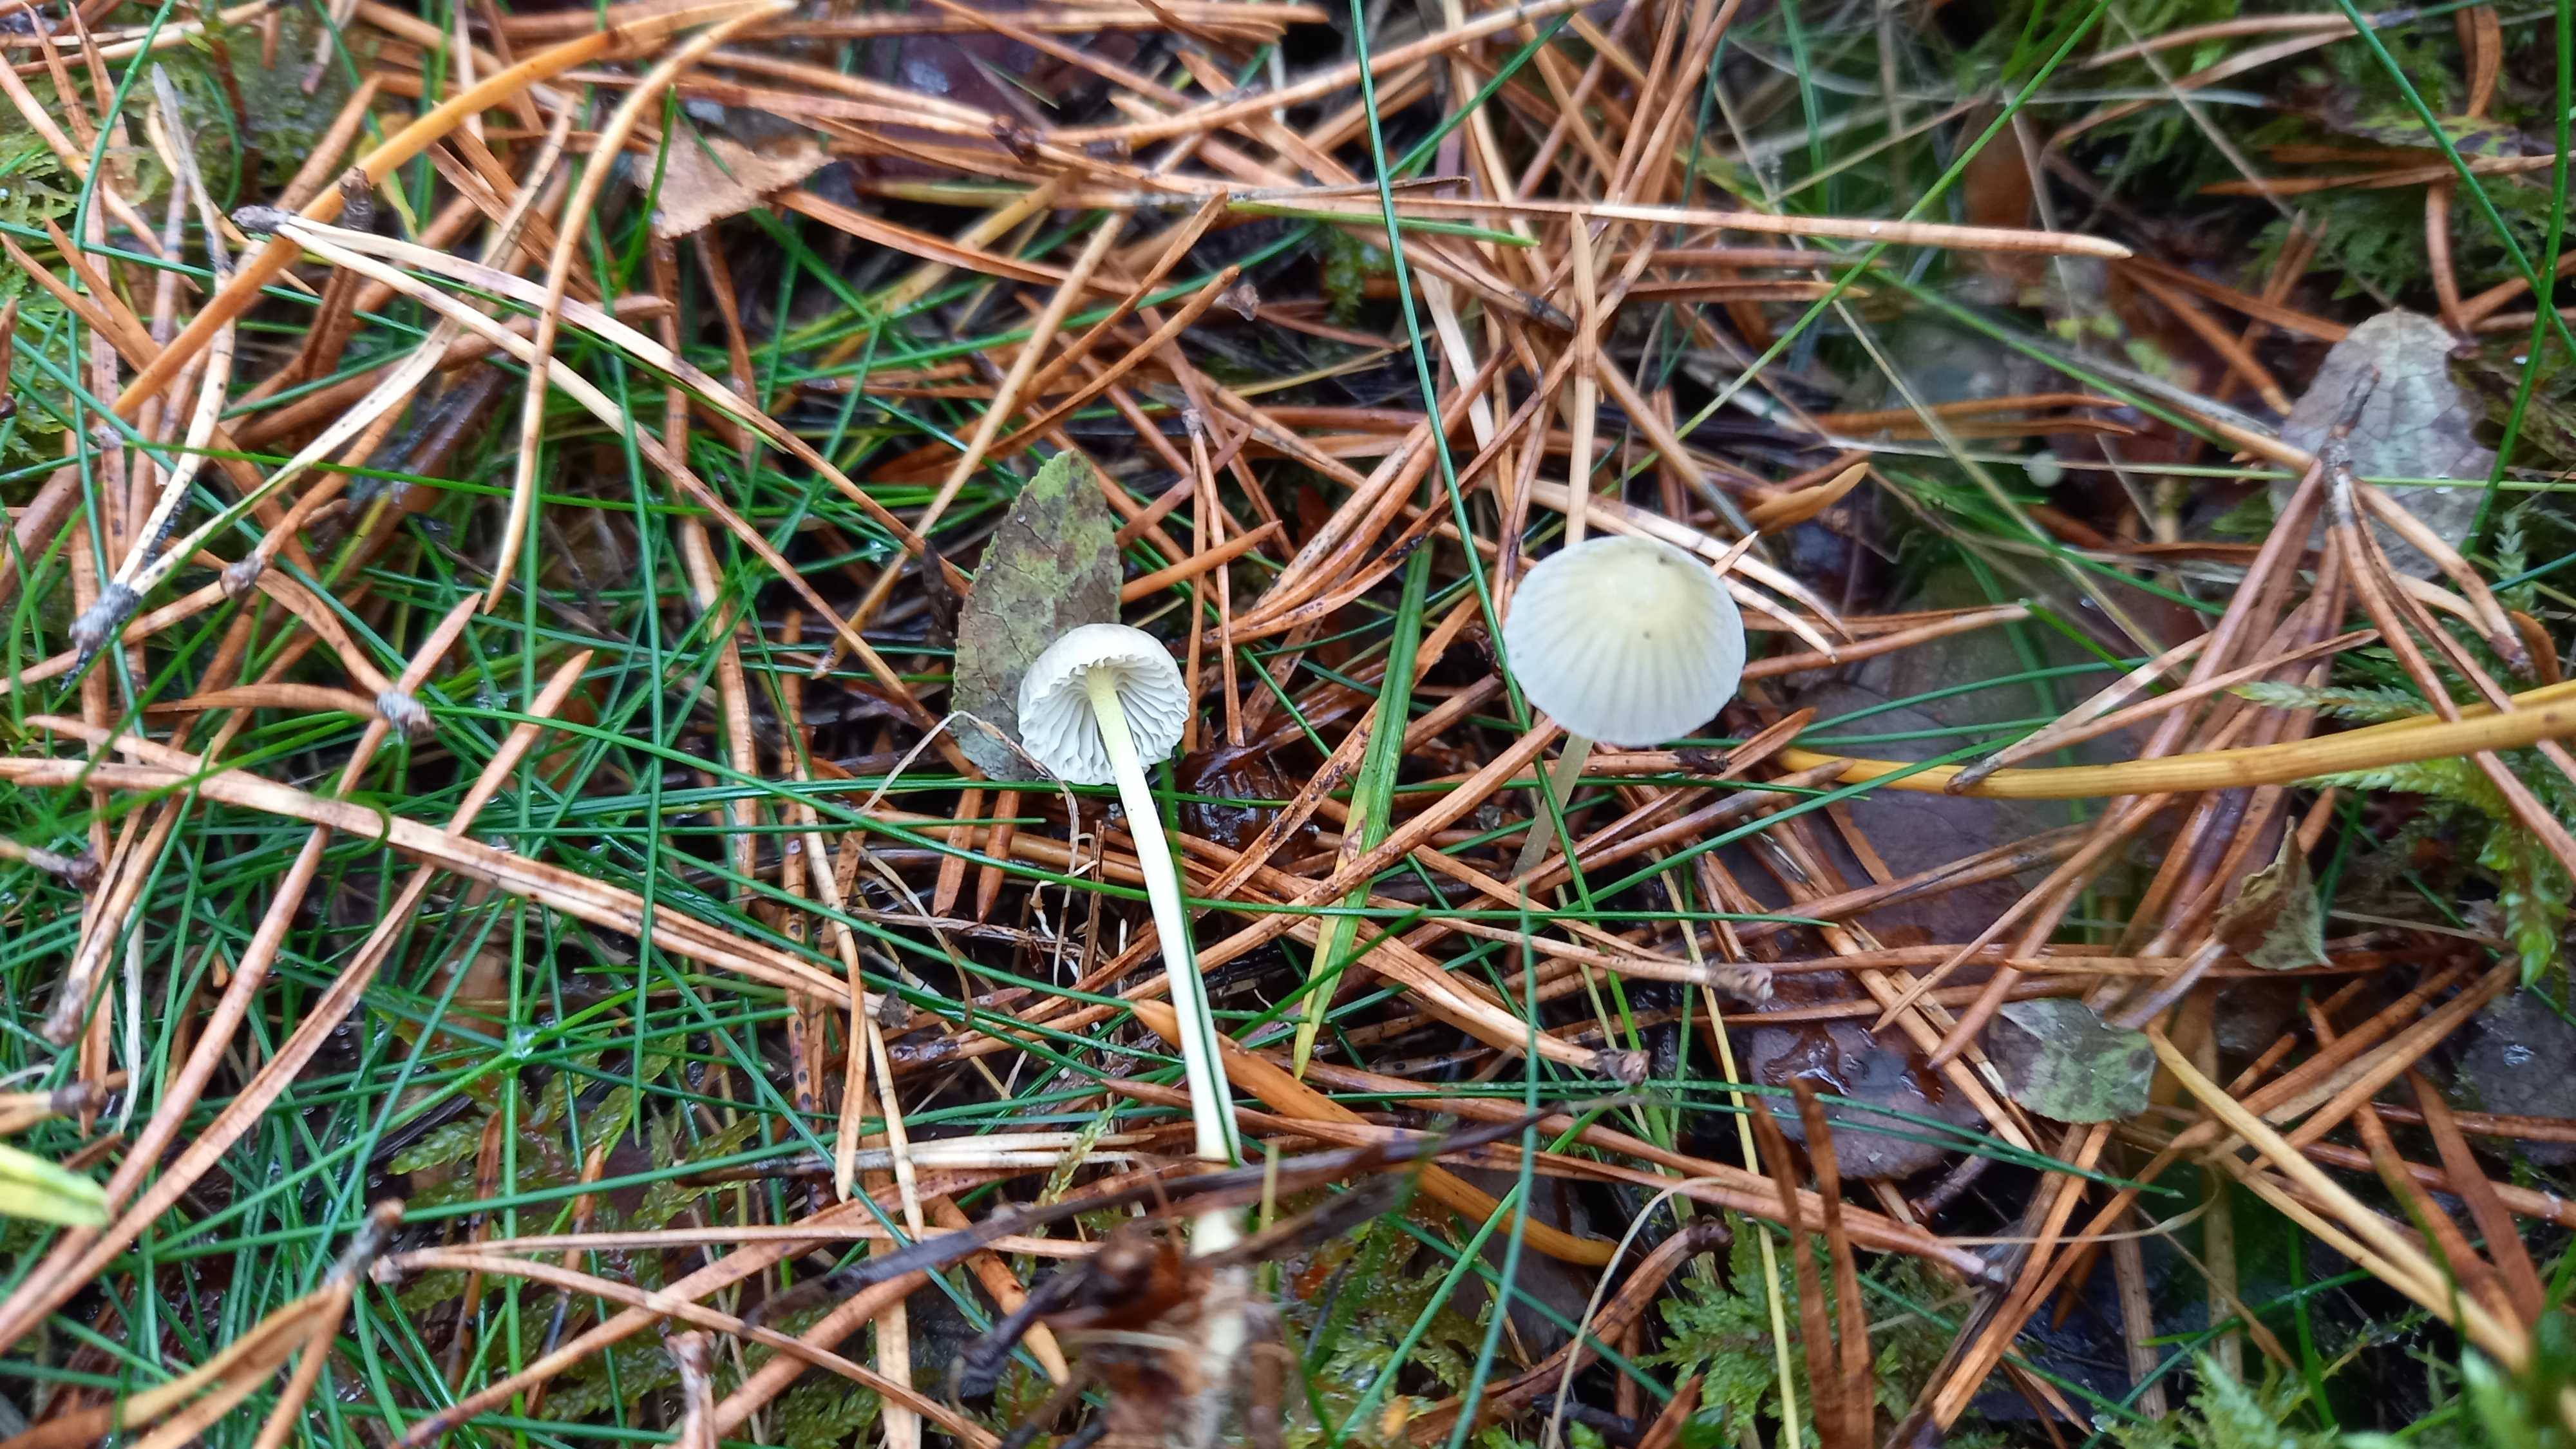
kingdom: Fungi
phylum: Basidiomycota
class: Agaricomycetes
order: Agaricales
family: Mycenaceae
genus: Mycena
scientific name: Mycena epipterygia
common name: gulstokket huesvamp
